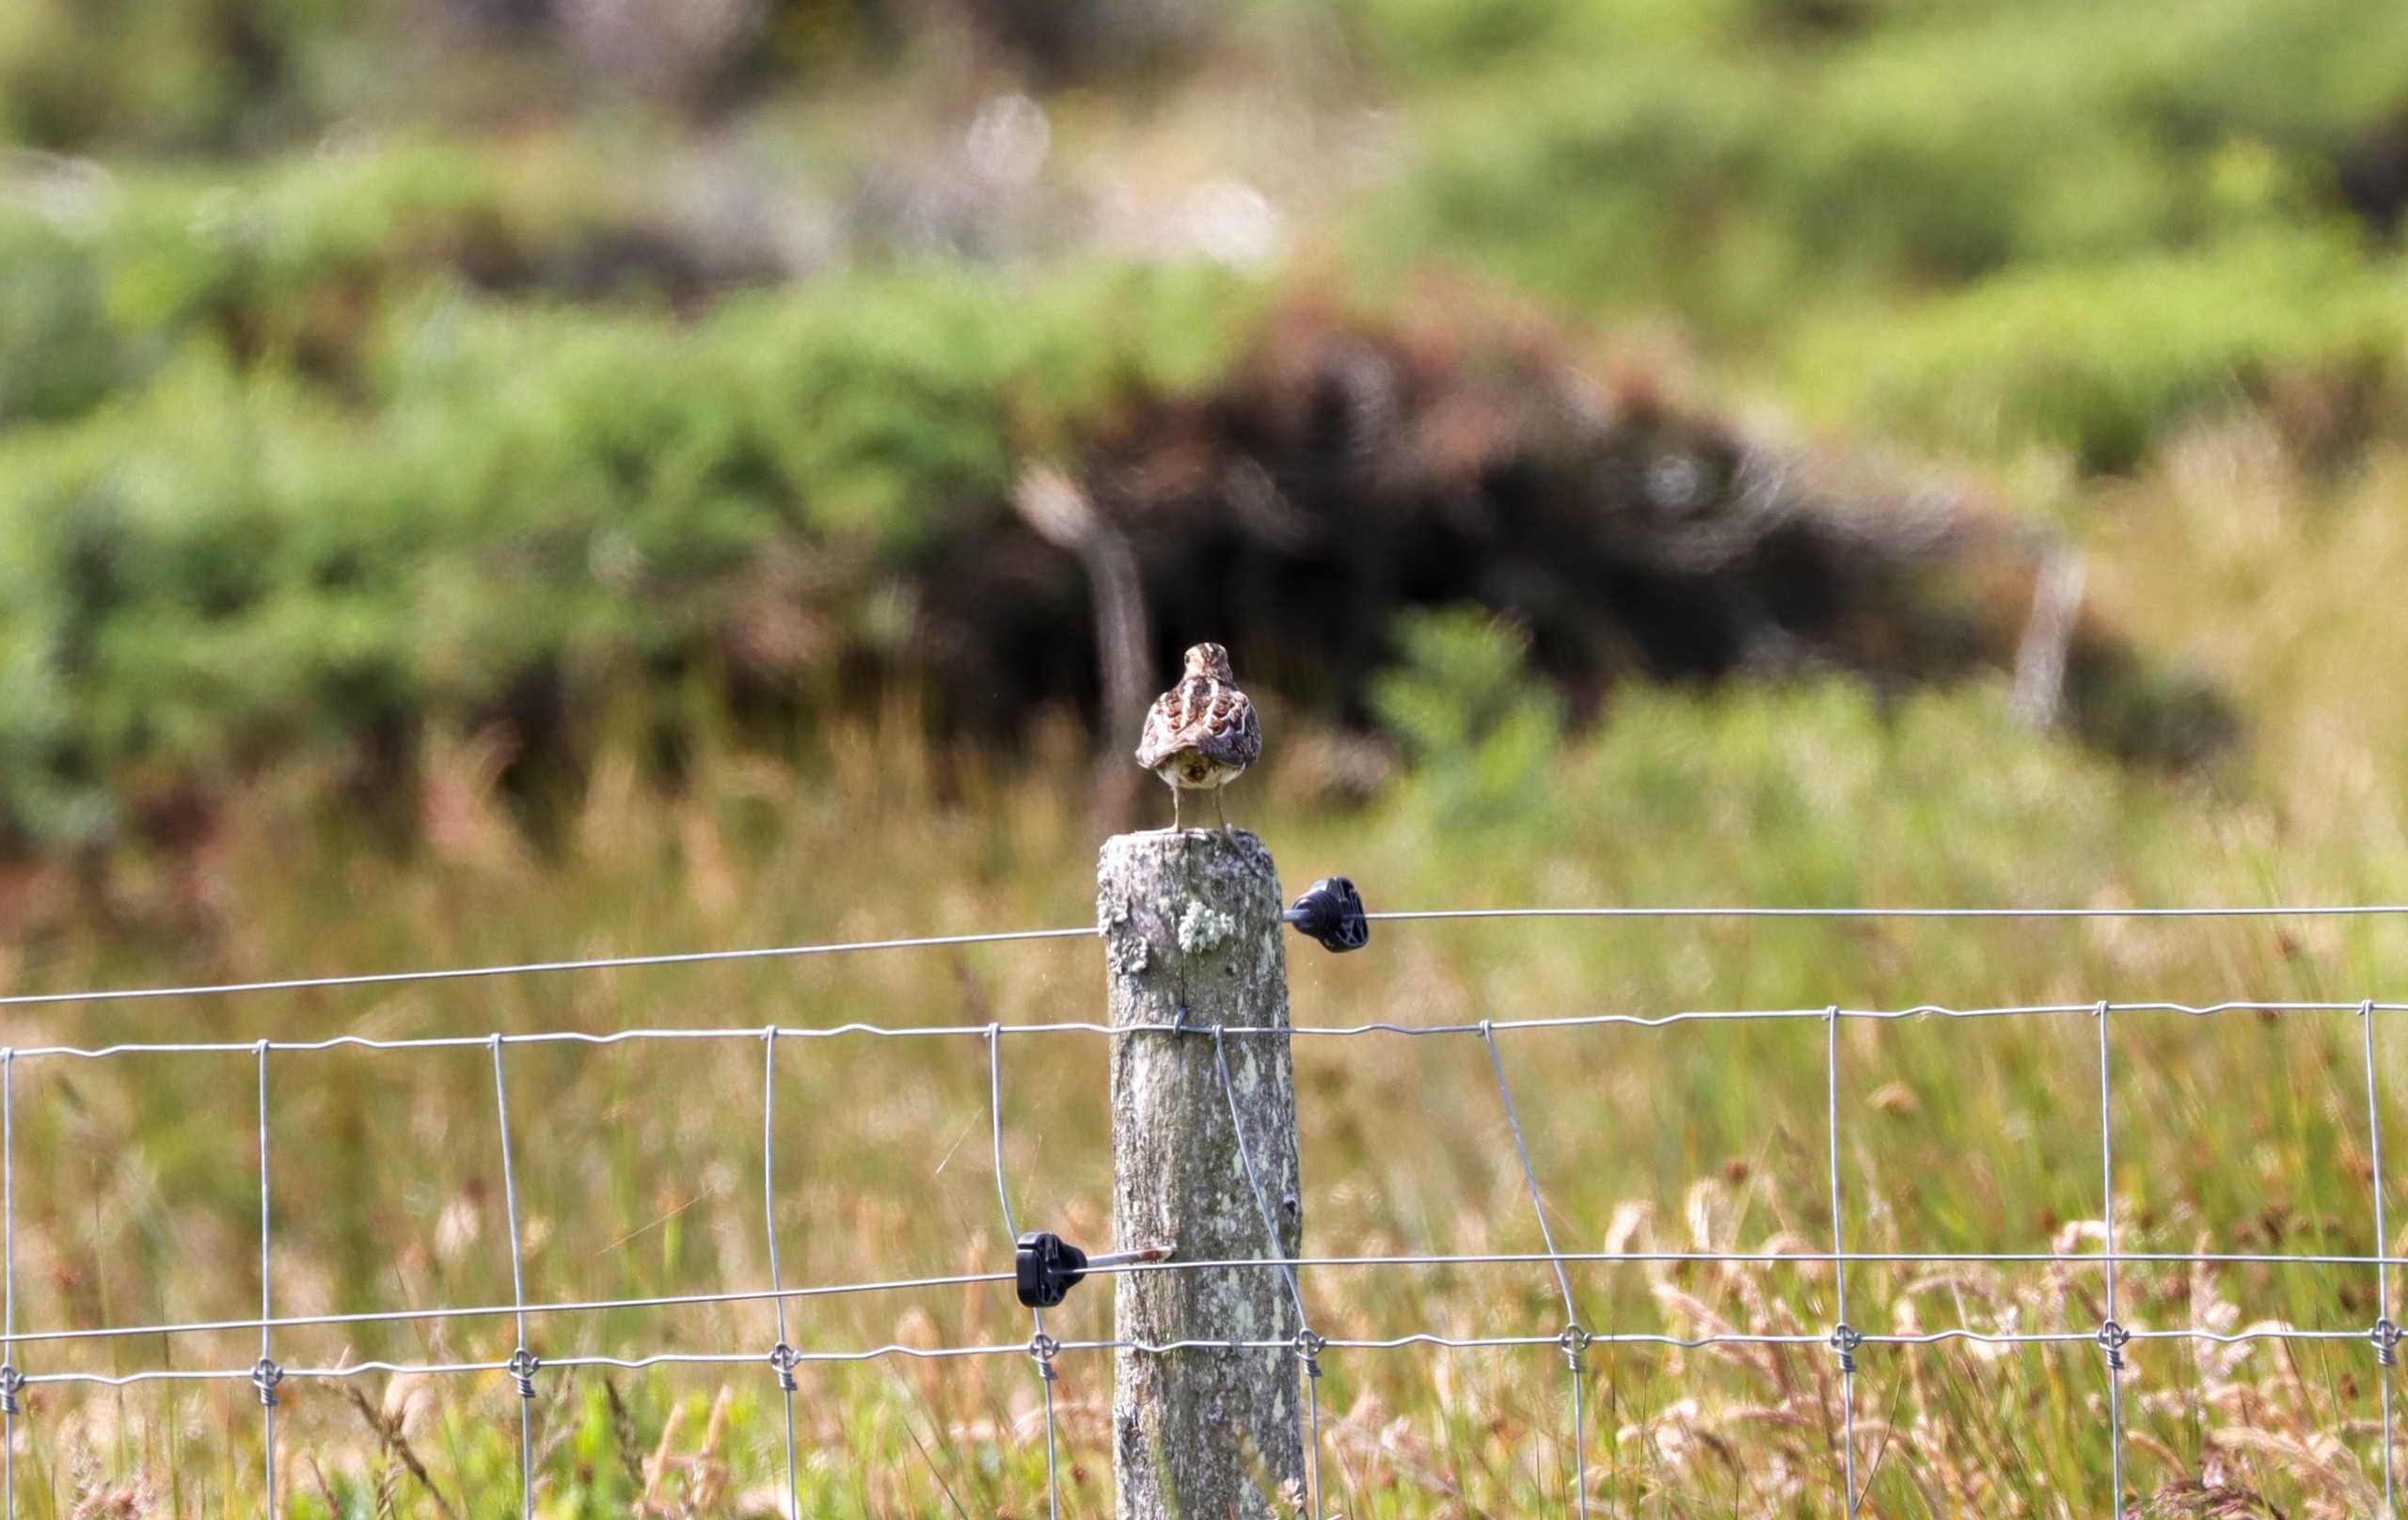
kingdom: Animalia
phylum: Chordata
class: Aves
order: Charadriiformes
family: Scolopacidae
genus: Gallinago
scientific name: Gallinago gallinago
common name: Dobbeltbekkasin
